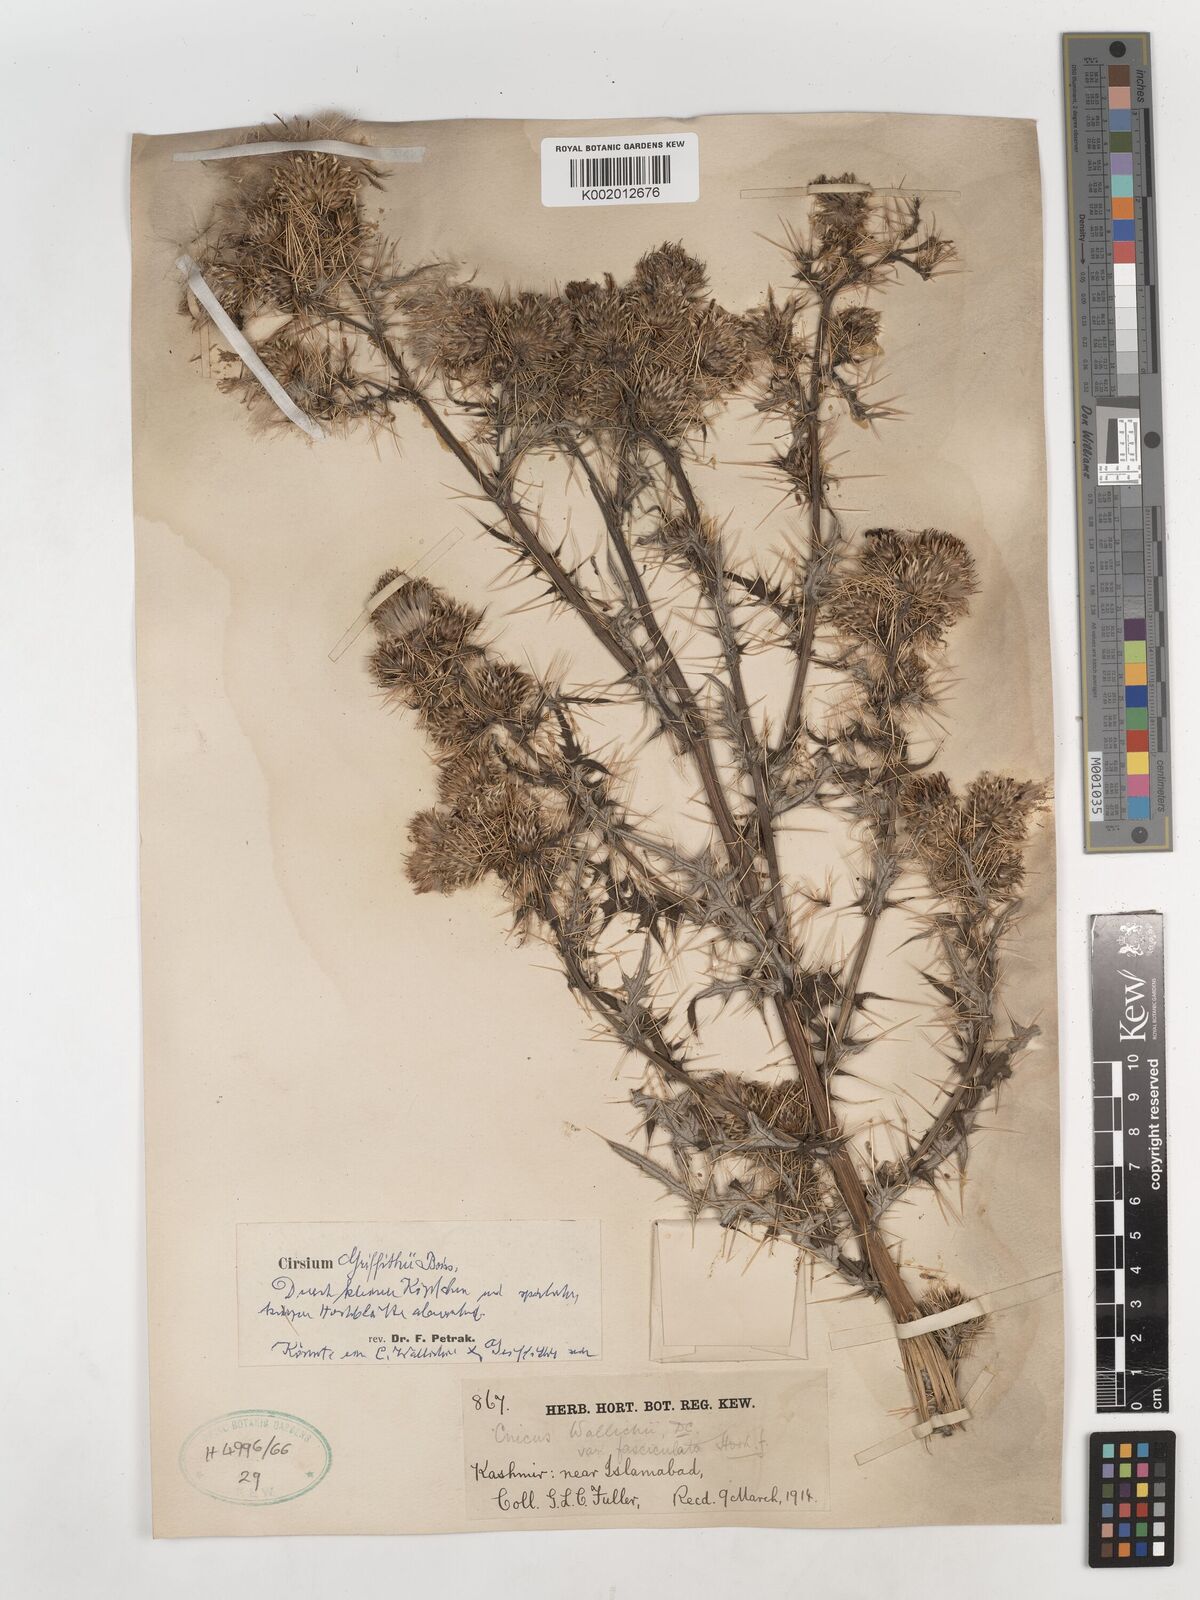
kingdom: Plantae
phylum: Tracheophyta
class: Magnoliopsida
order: Asterales
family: Asteraceae
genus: Lophiolepis
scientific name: Lophiolepis griffithii
